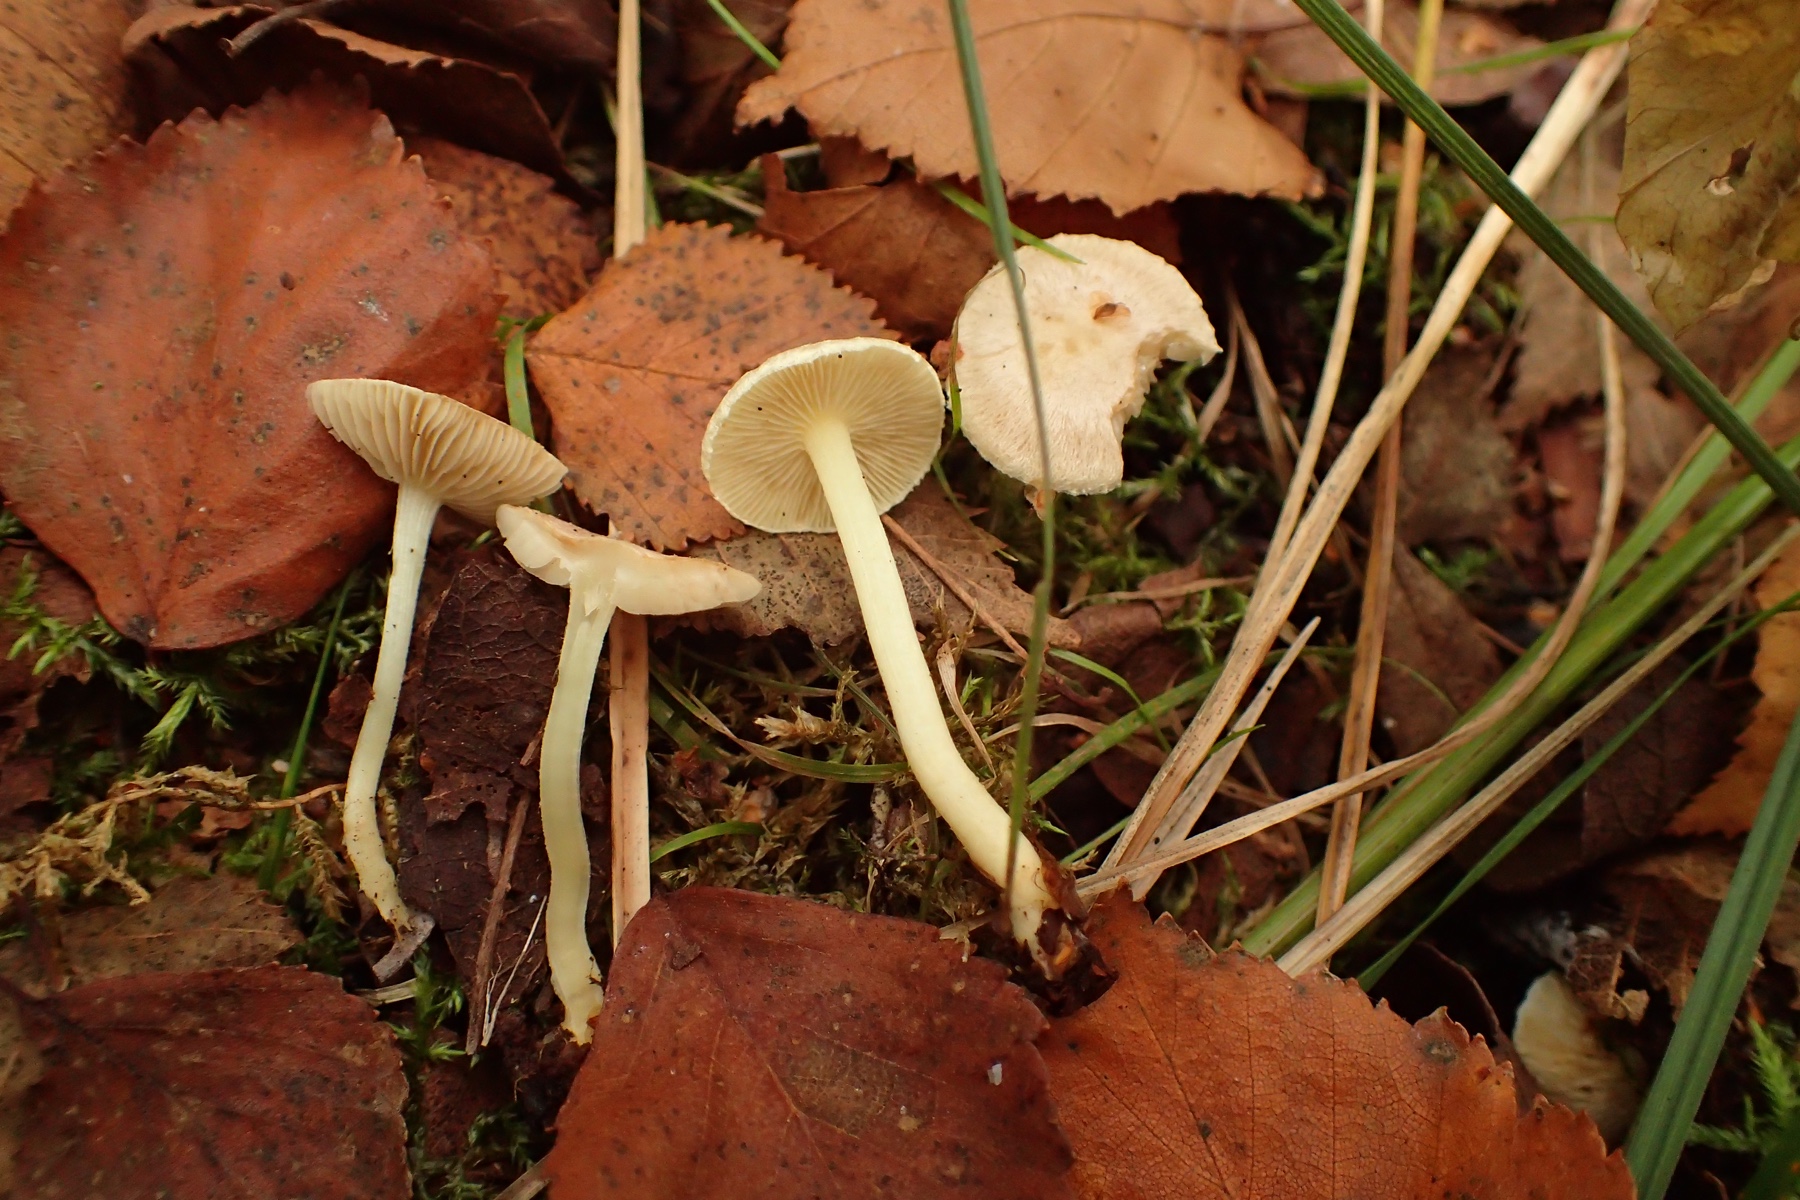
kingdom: Fungi
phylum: Basidiomycota
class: Agaricomycetes
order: Agaricales
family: Inocybaceae
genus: Inocybe
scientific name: Inocybe paludinella
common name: mose-trævlhat
